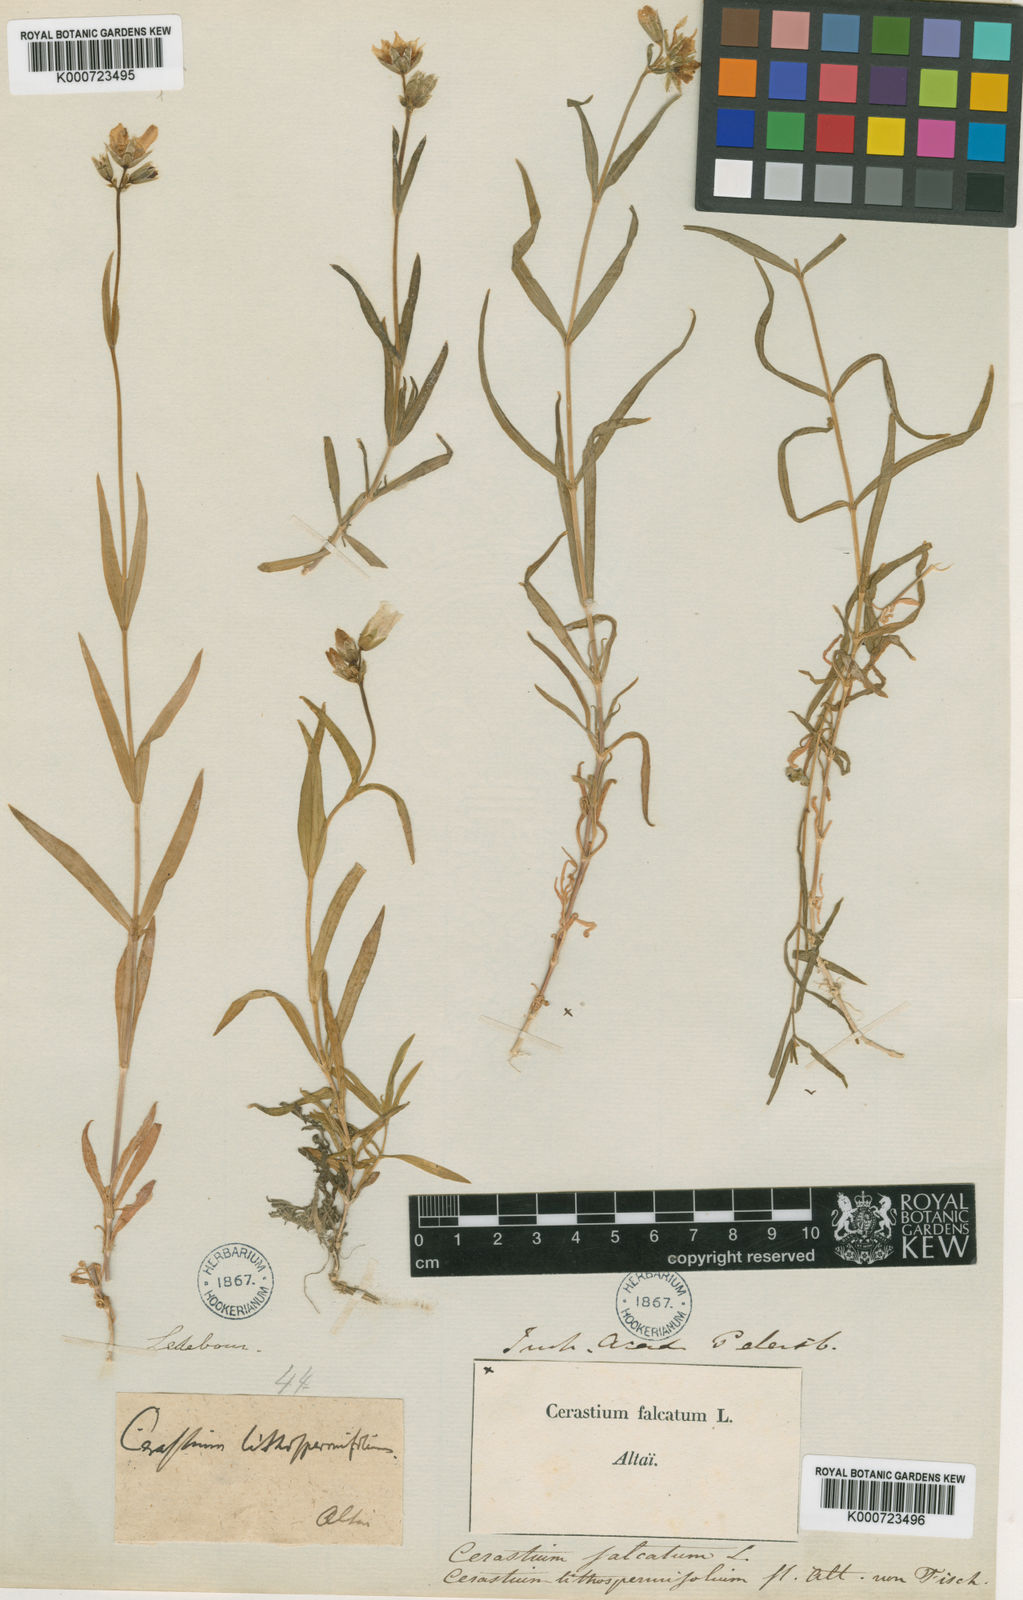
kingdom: Plantae
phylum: Tracheophyta
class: Magnoliopsida
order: Caryophyllales
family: Caryophyllaceae
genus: Cerastium
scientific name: Cerastium
